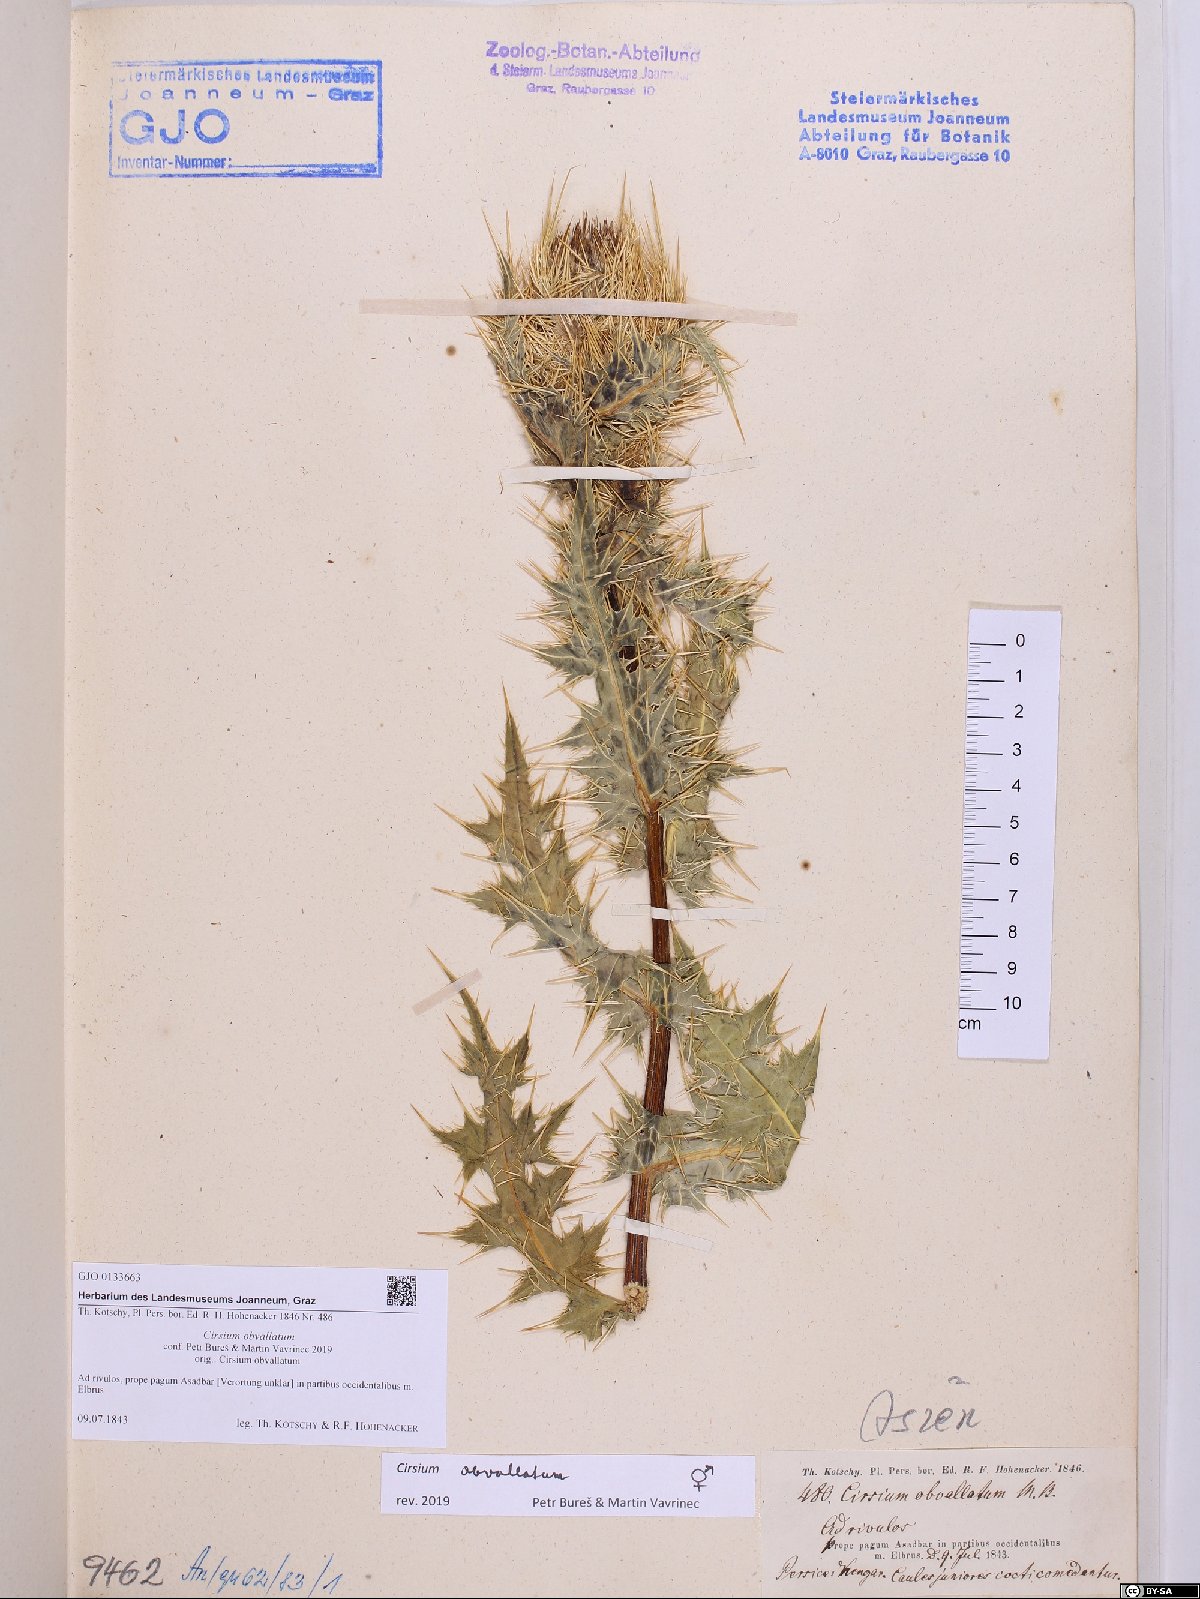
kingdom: Plantae
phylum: Tracheophyta
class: Magnoliopsida
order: Asterales
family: Asteraceae
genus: Cirsium
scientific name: Cirsium obvallatum
